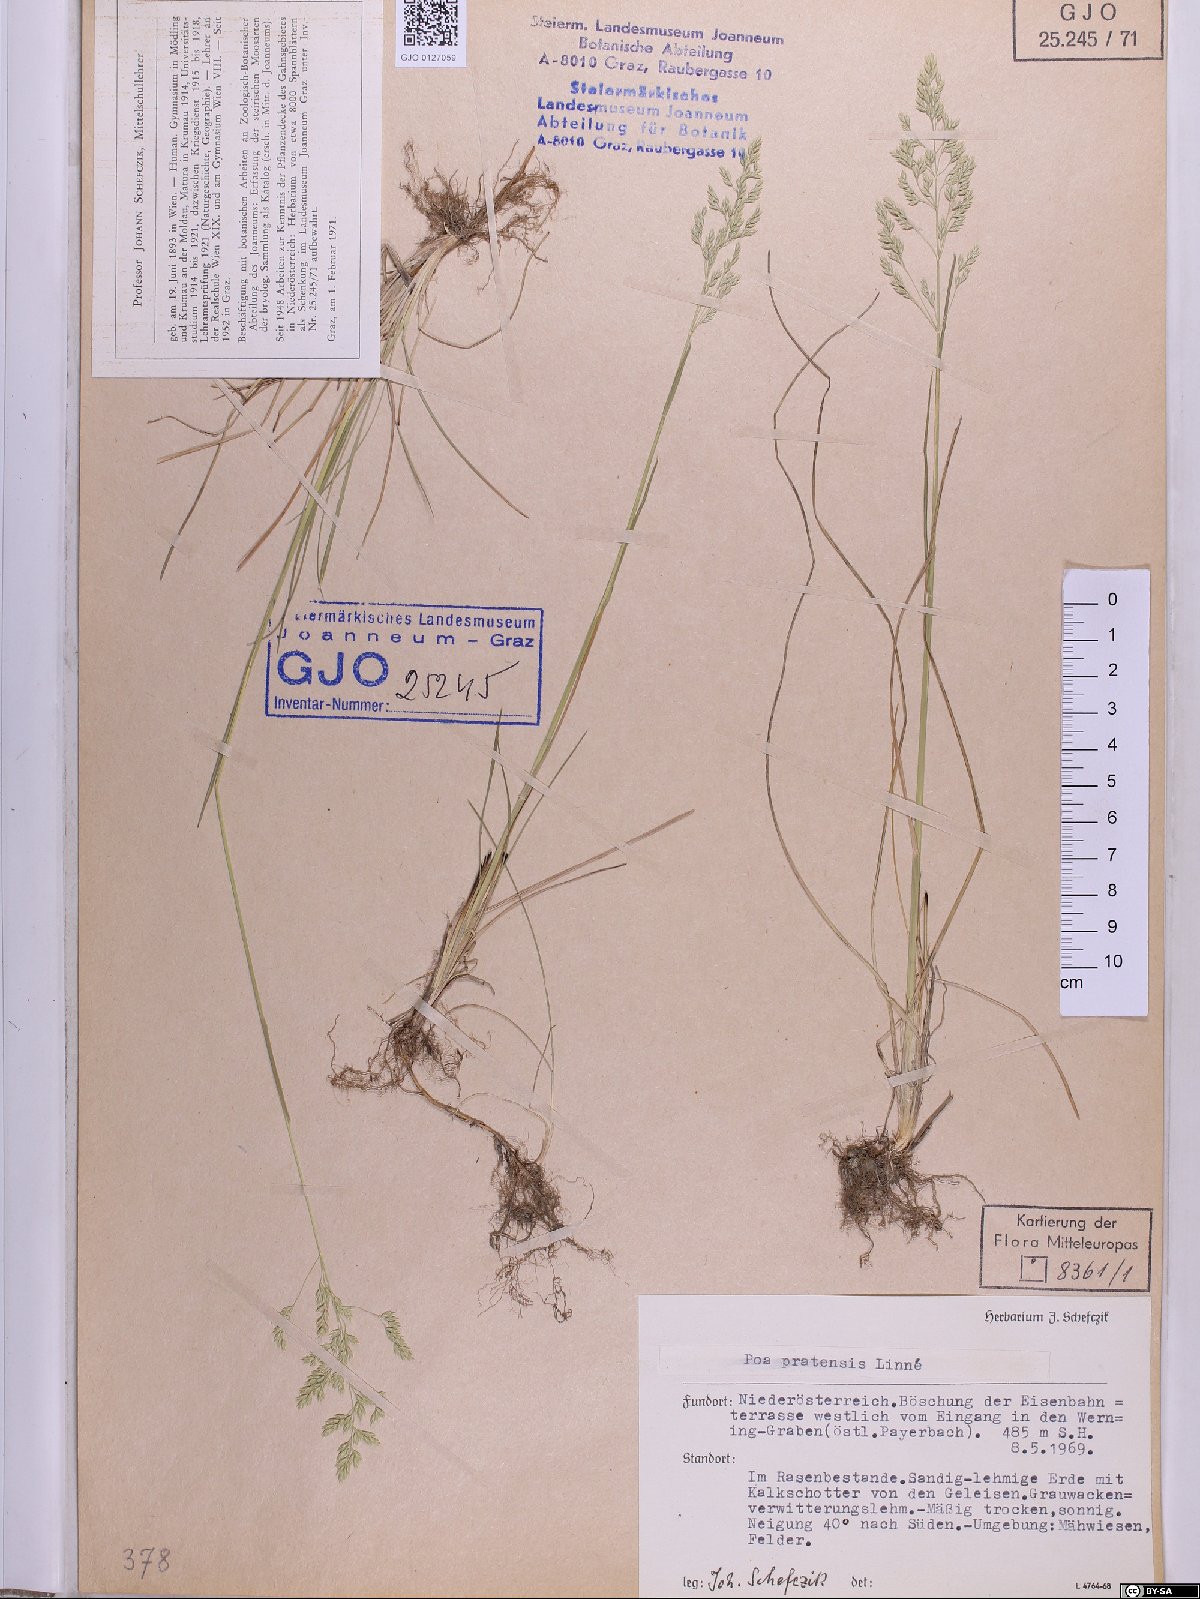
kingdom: Plantae
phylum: Tracheophyta
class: Liliopsida
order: Poales
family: Poaceae
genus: Poa
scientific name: Poa pratensis
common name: Kentucky bluegrass
